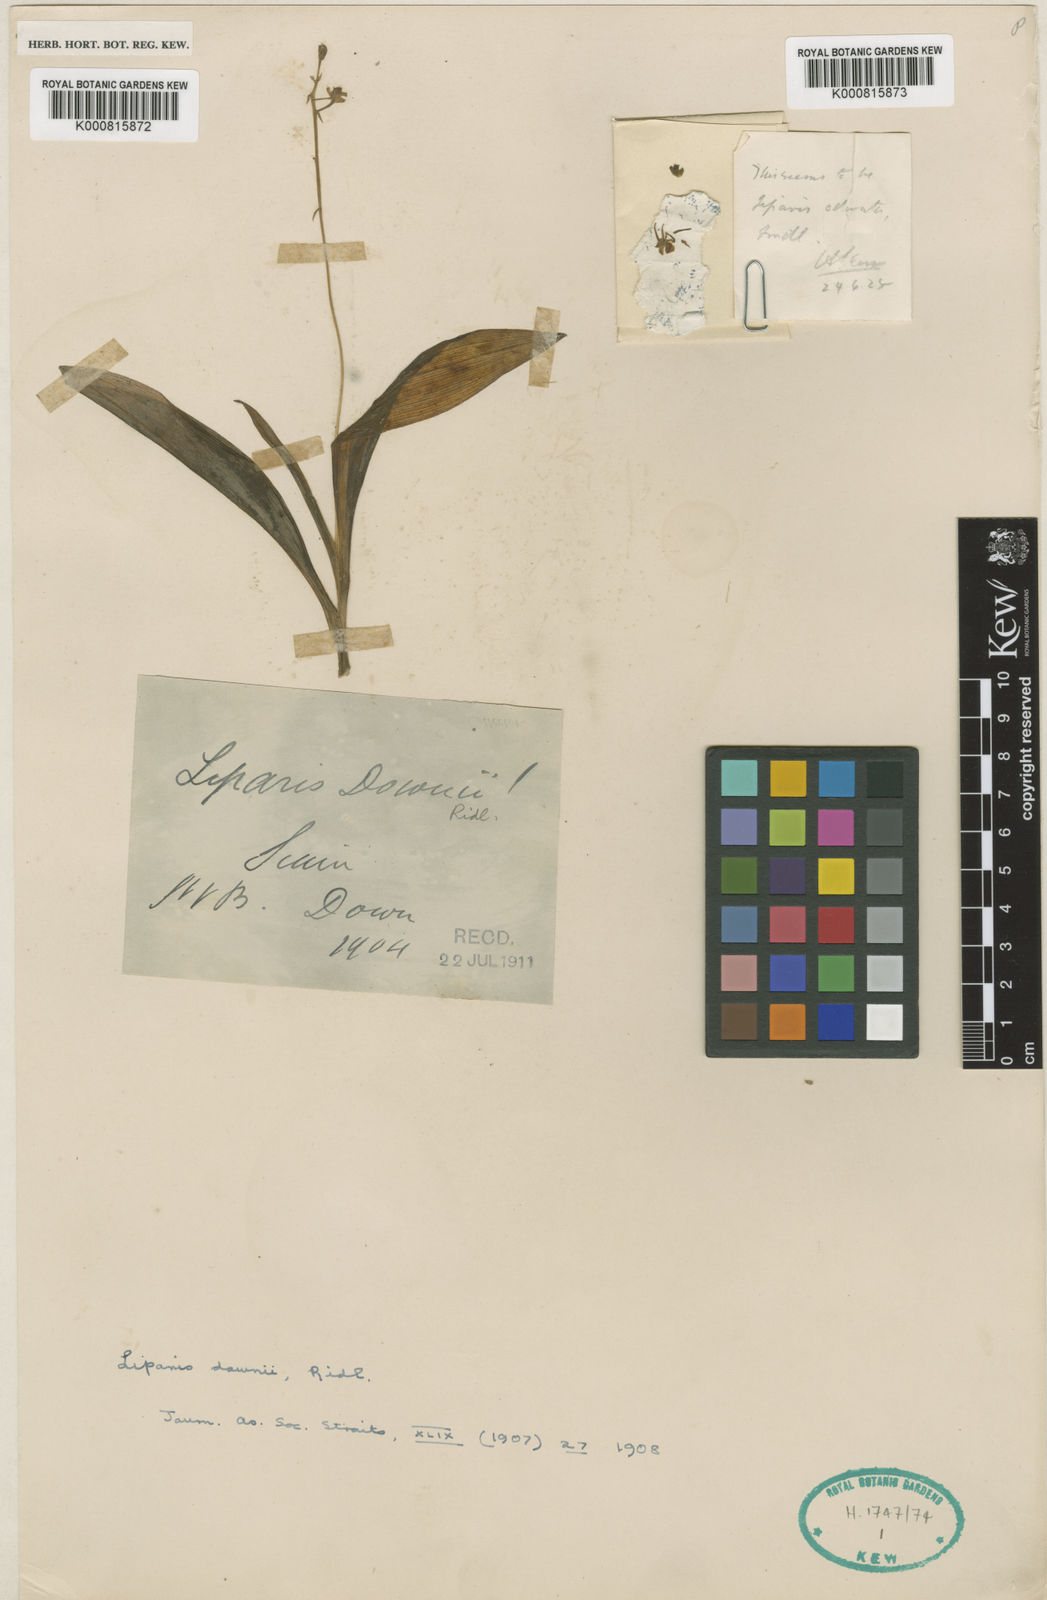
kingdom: Plantae
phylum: Tracheophyta
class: Liliopsida
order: Asparagales
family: Orchidaceae
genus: Liparis
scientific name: Liparis downii
